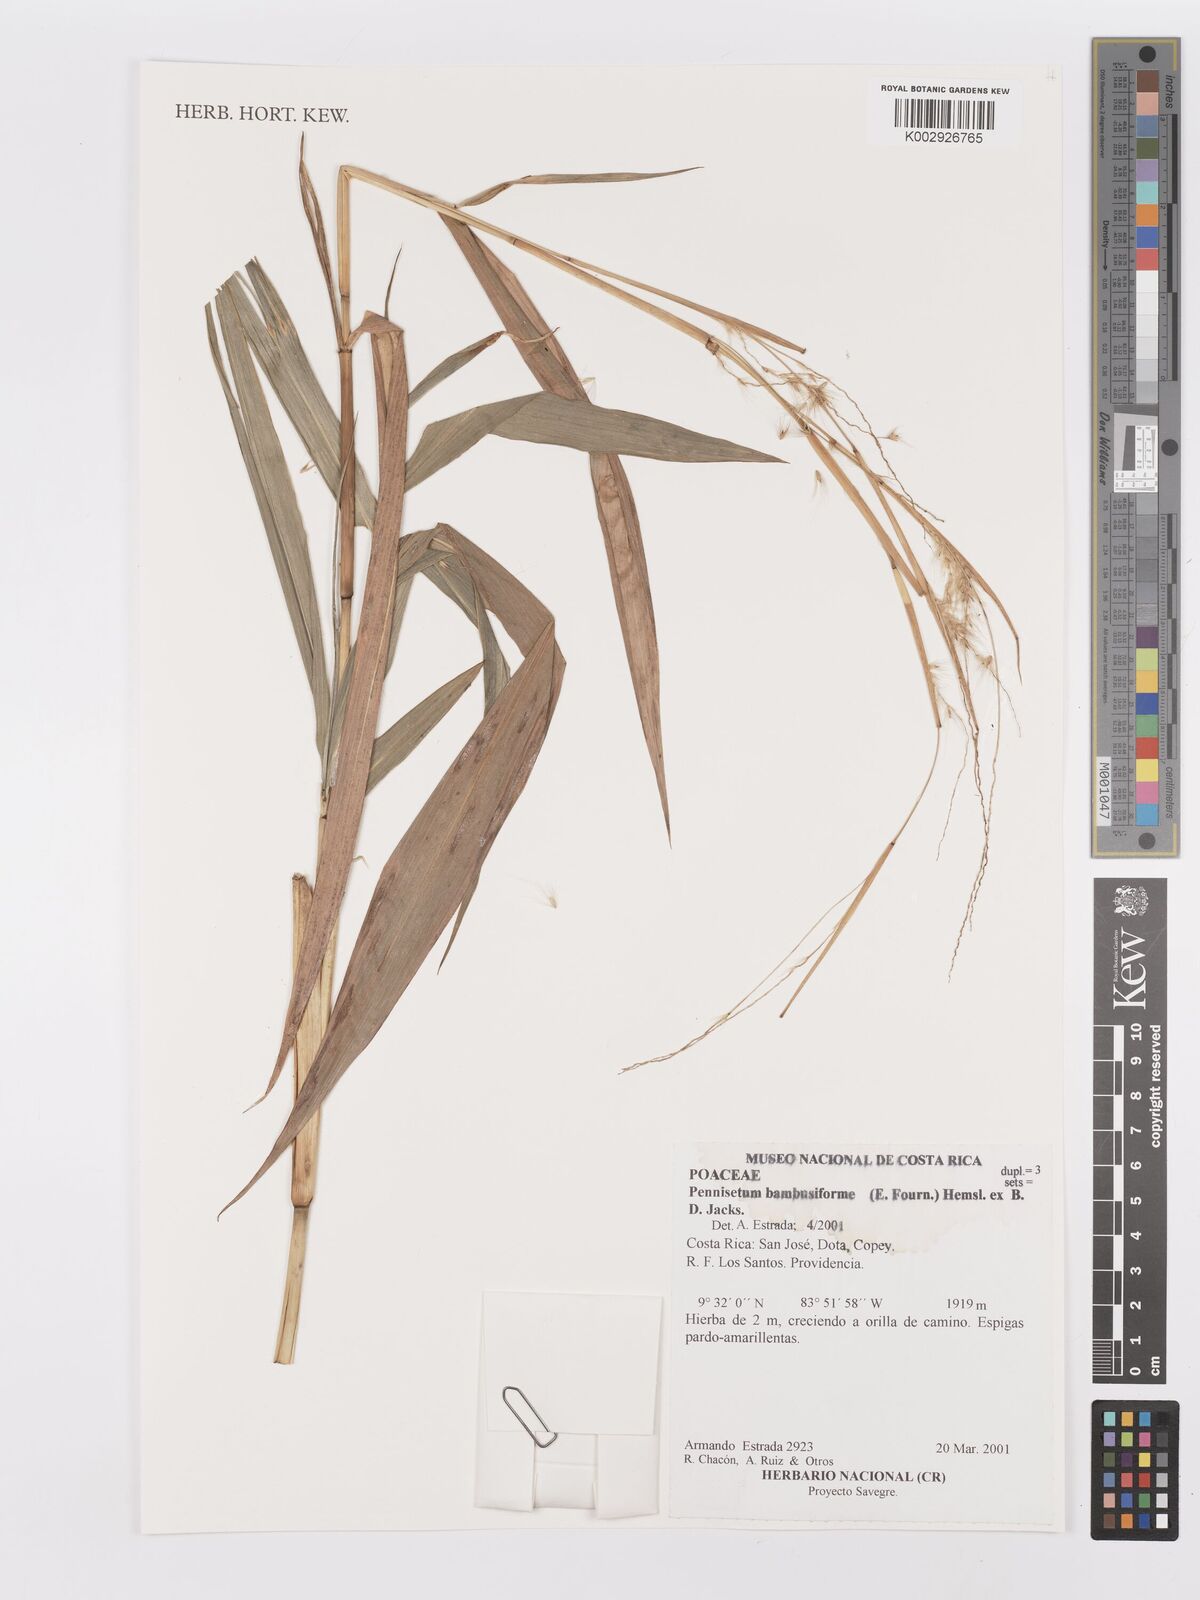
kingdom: Plantae
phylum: Tracheophyta
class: Liliopsida
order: Poales
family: Poaceae
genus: Cenchrus
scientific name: Cenchrus preslii
